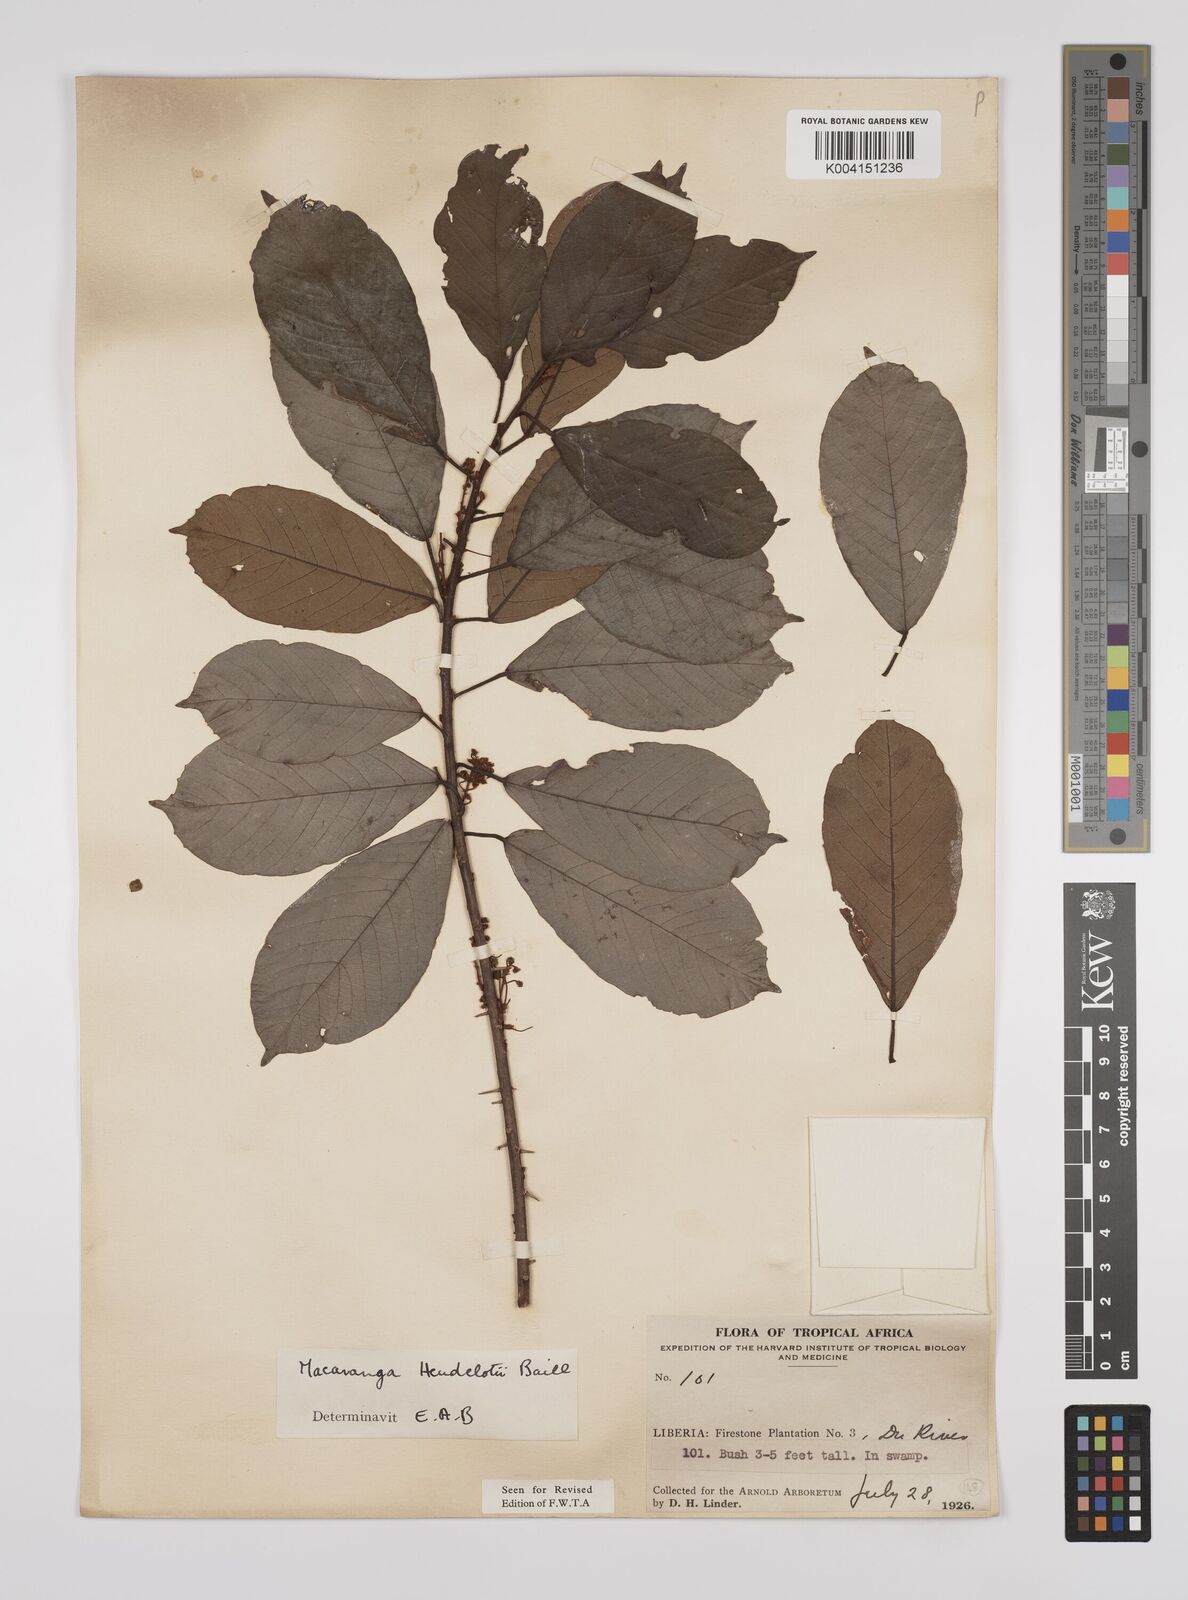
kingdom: Plantae
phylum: Tracheophyta
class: Magnoliopsida
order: Malpighiales
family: Euphorbiaceae
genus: Macaranga
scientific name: Macaranga heudelotii
